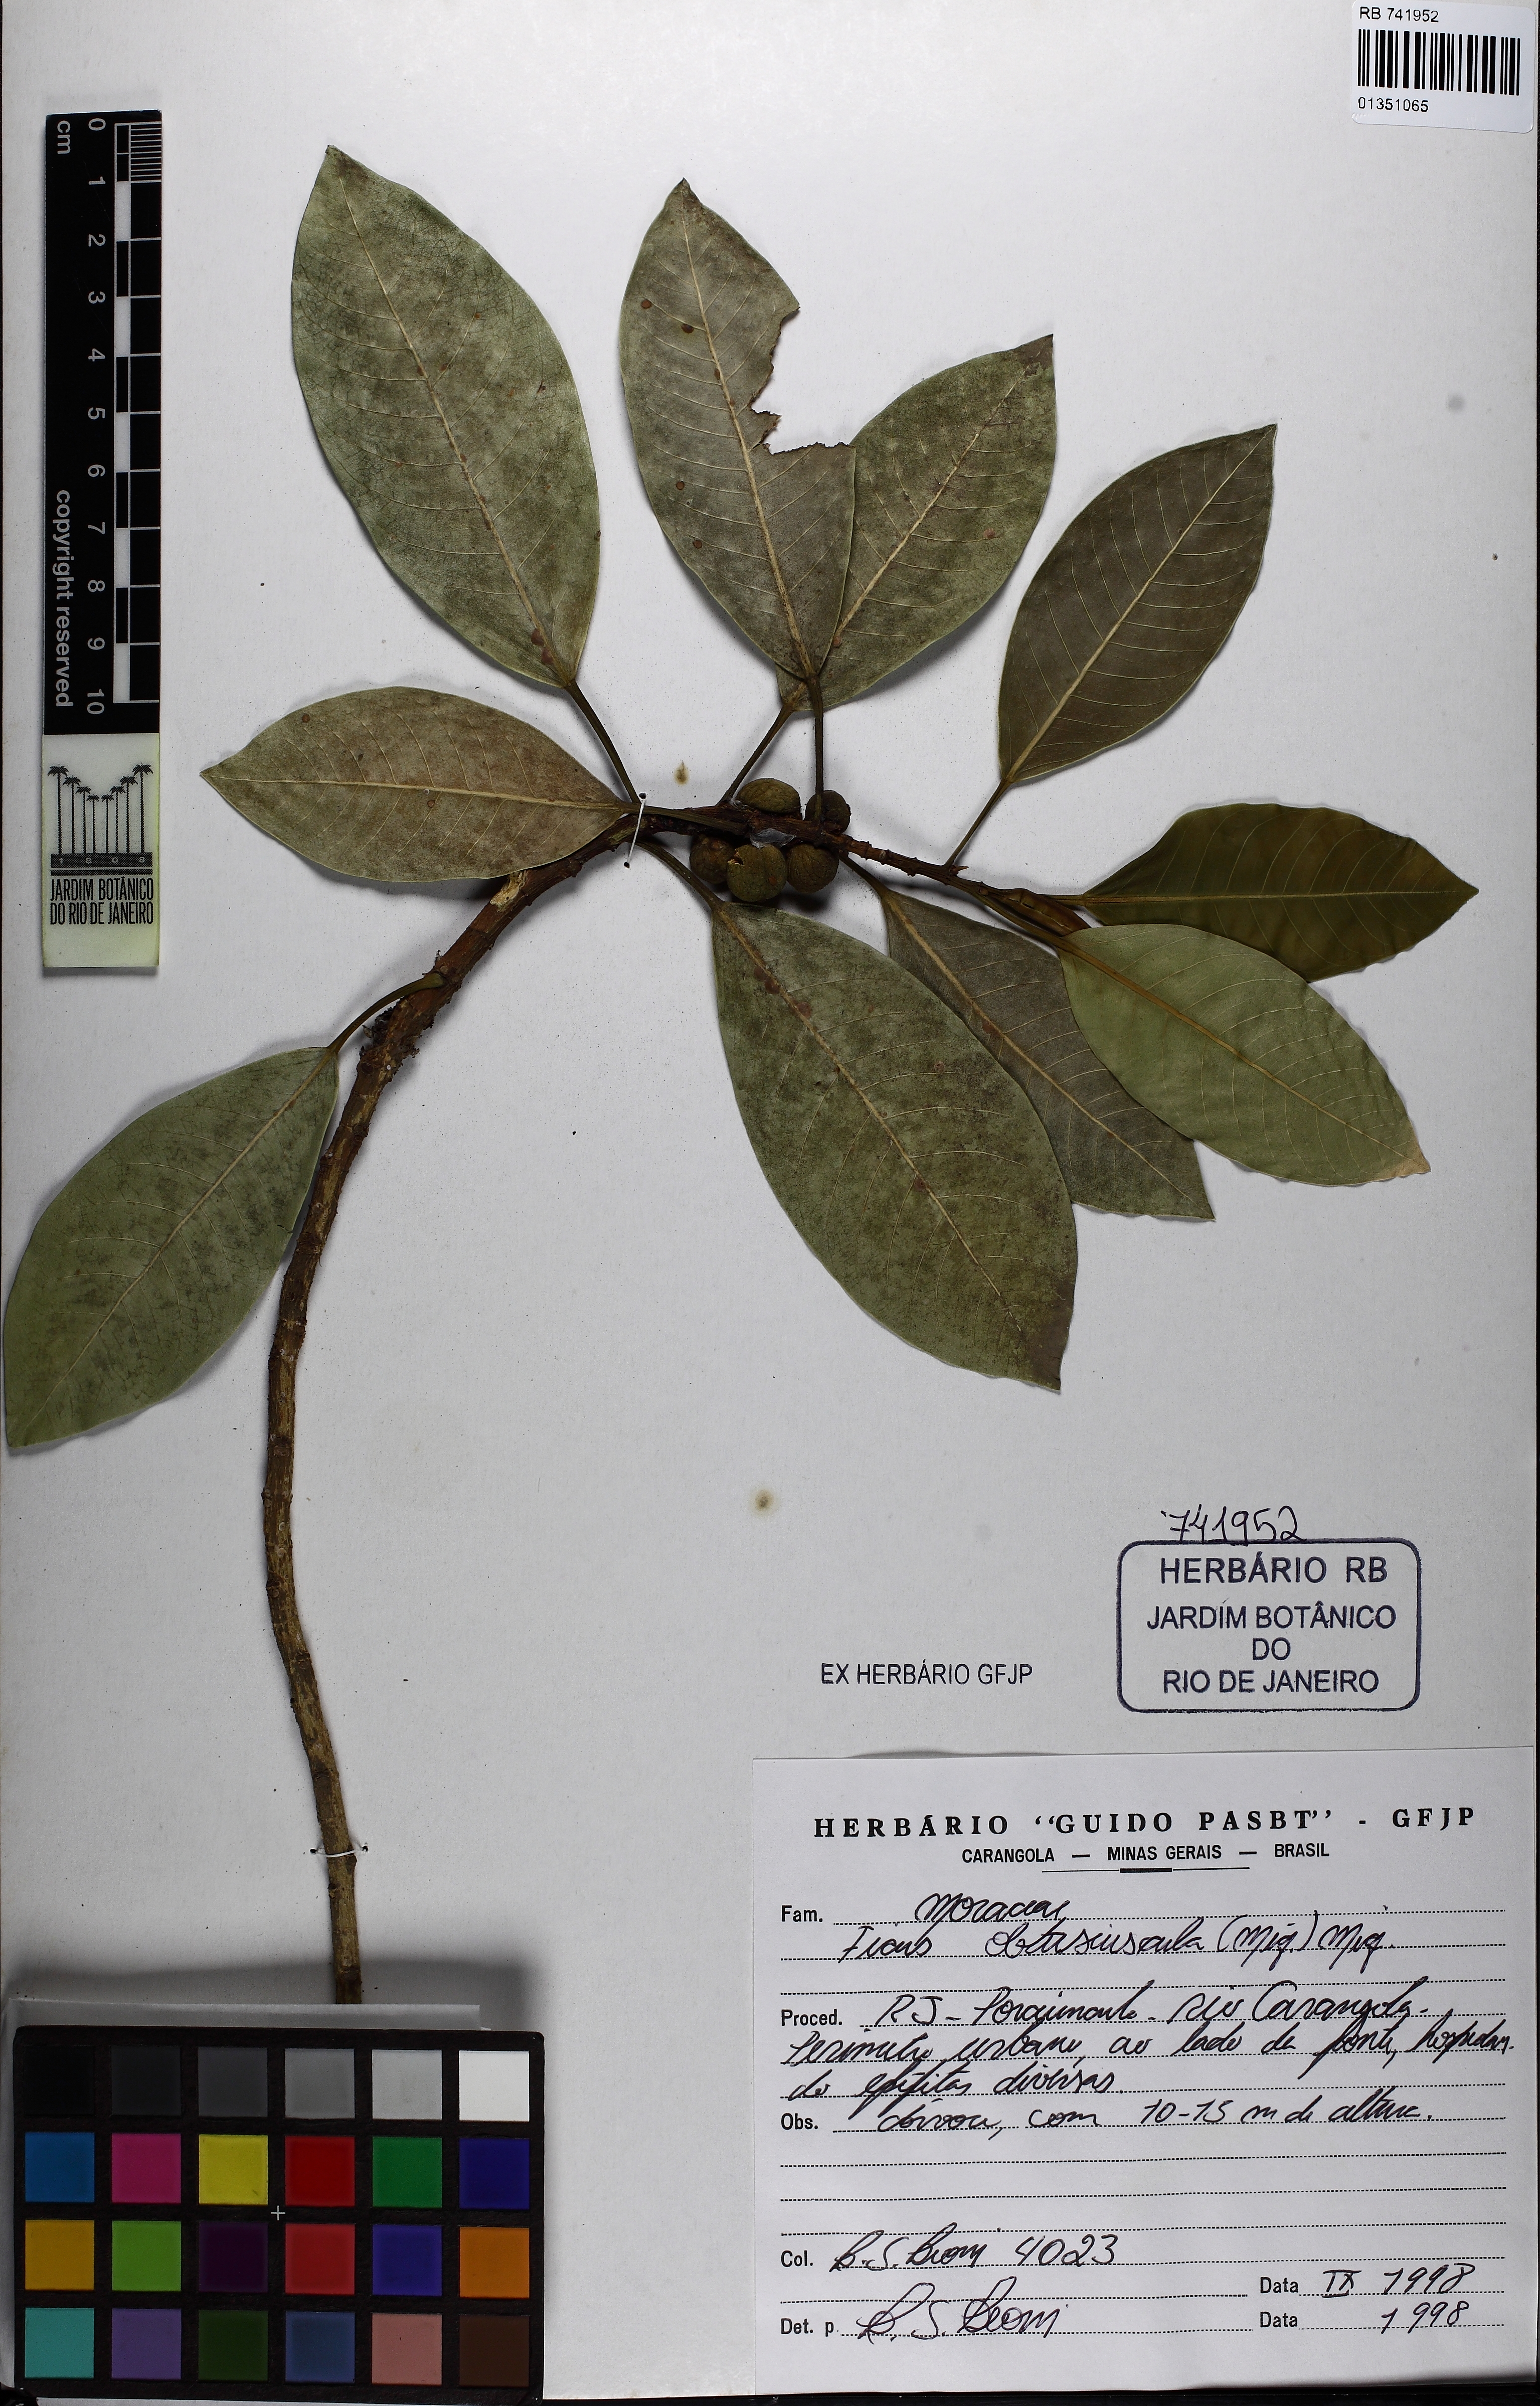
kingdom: Plantae
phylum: Tracheophyta
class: Magnoliopsida
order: Rosales
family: Moraceae
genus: Ficus
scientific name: Ficus obtusiuscula
